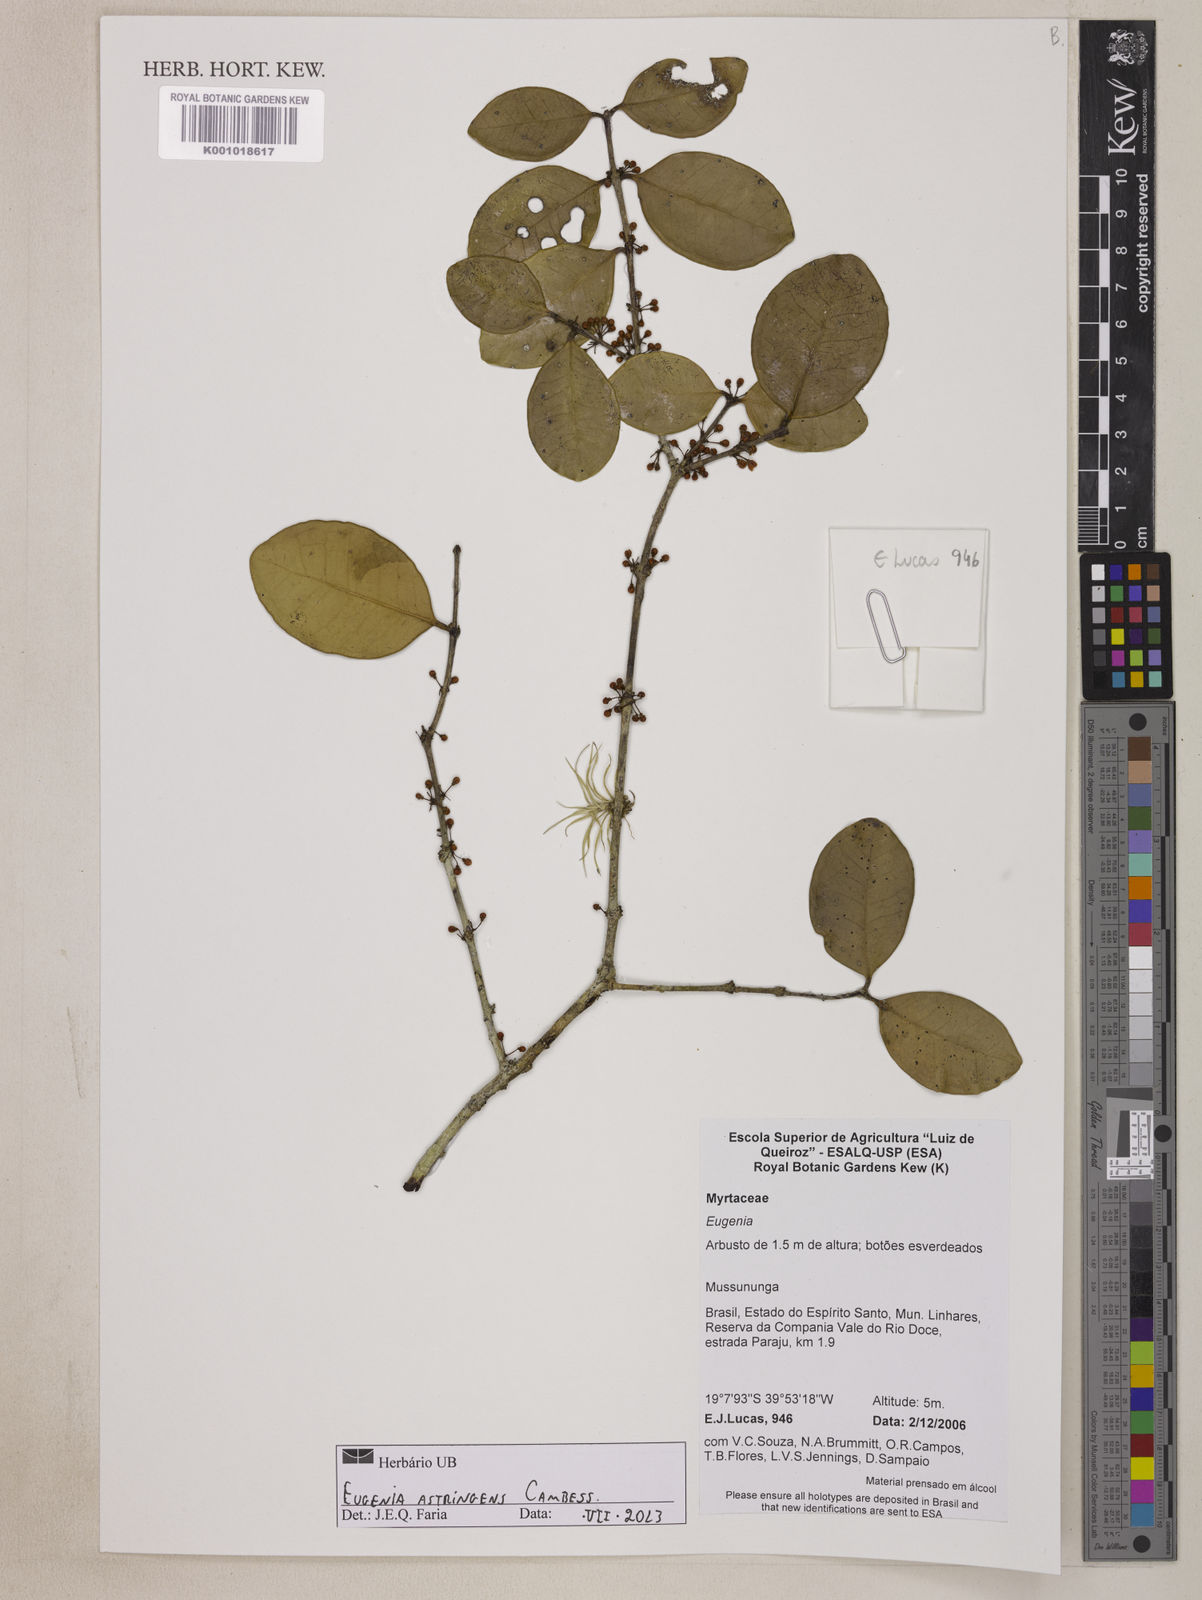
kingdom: Plantae
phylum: Tracheophyta
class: Magnoliopsida
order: Myrtales
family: Myrtaceae
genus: Eugenia
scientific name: Eugenia astringens
